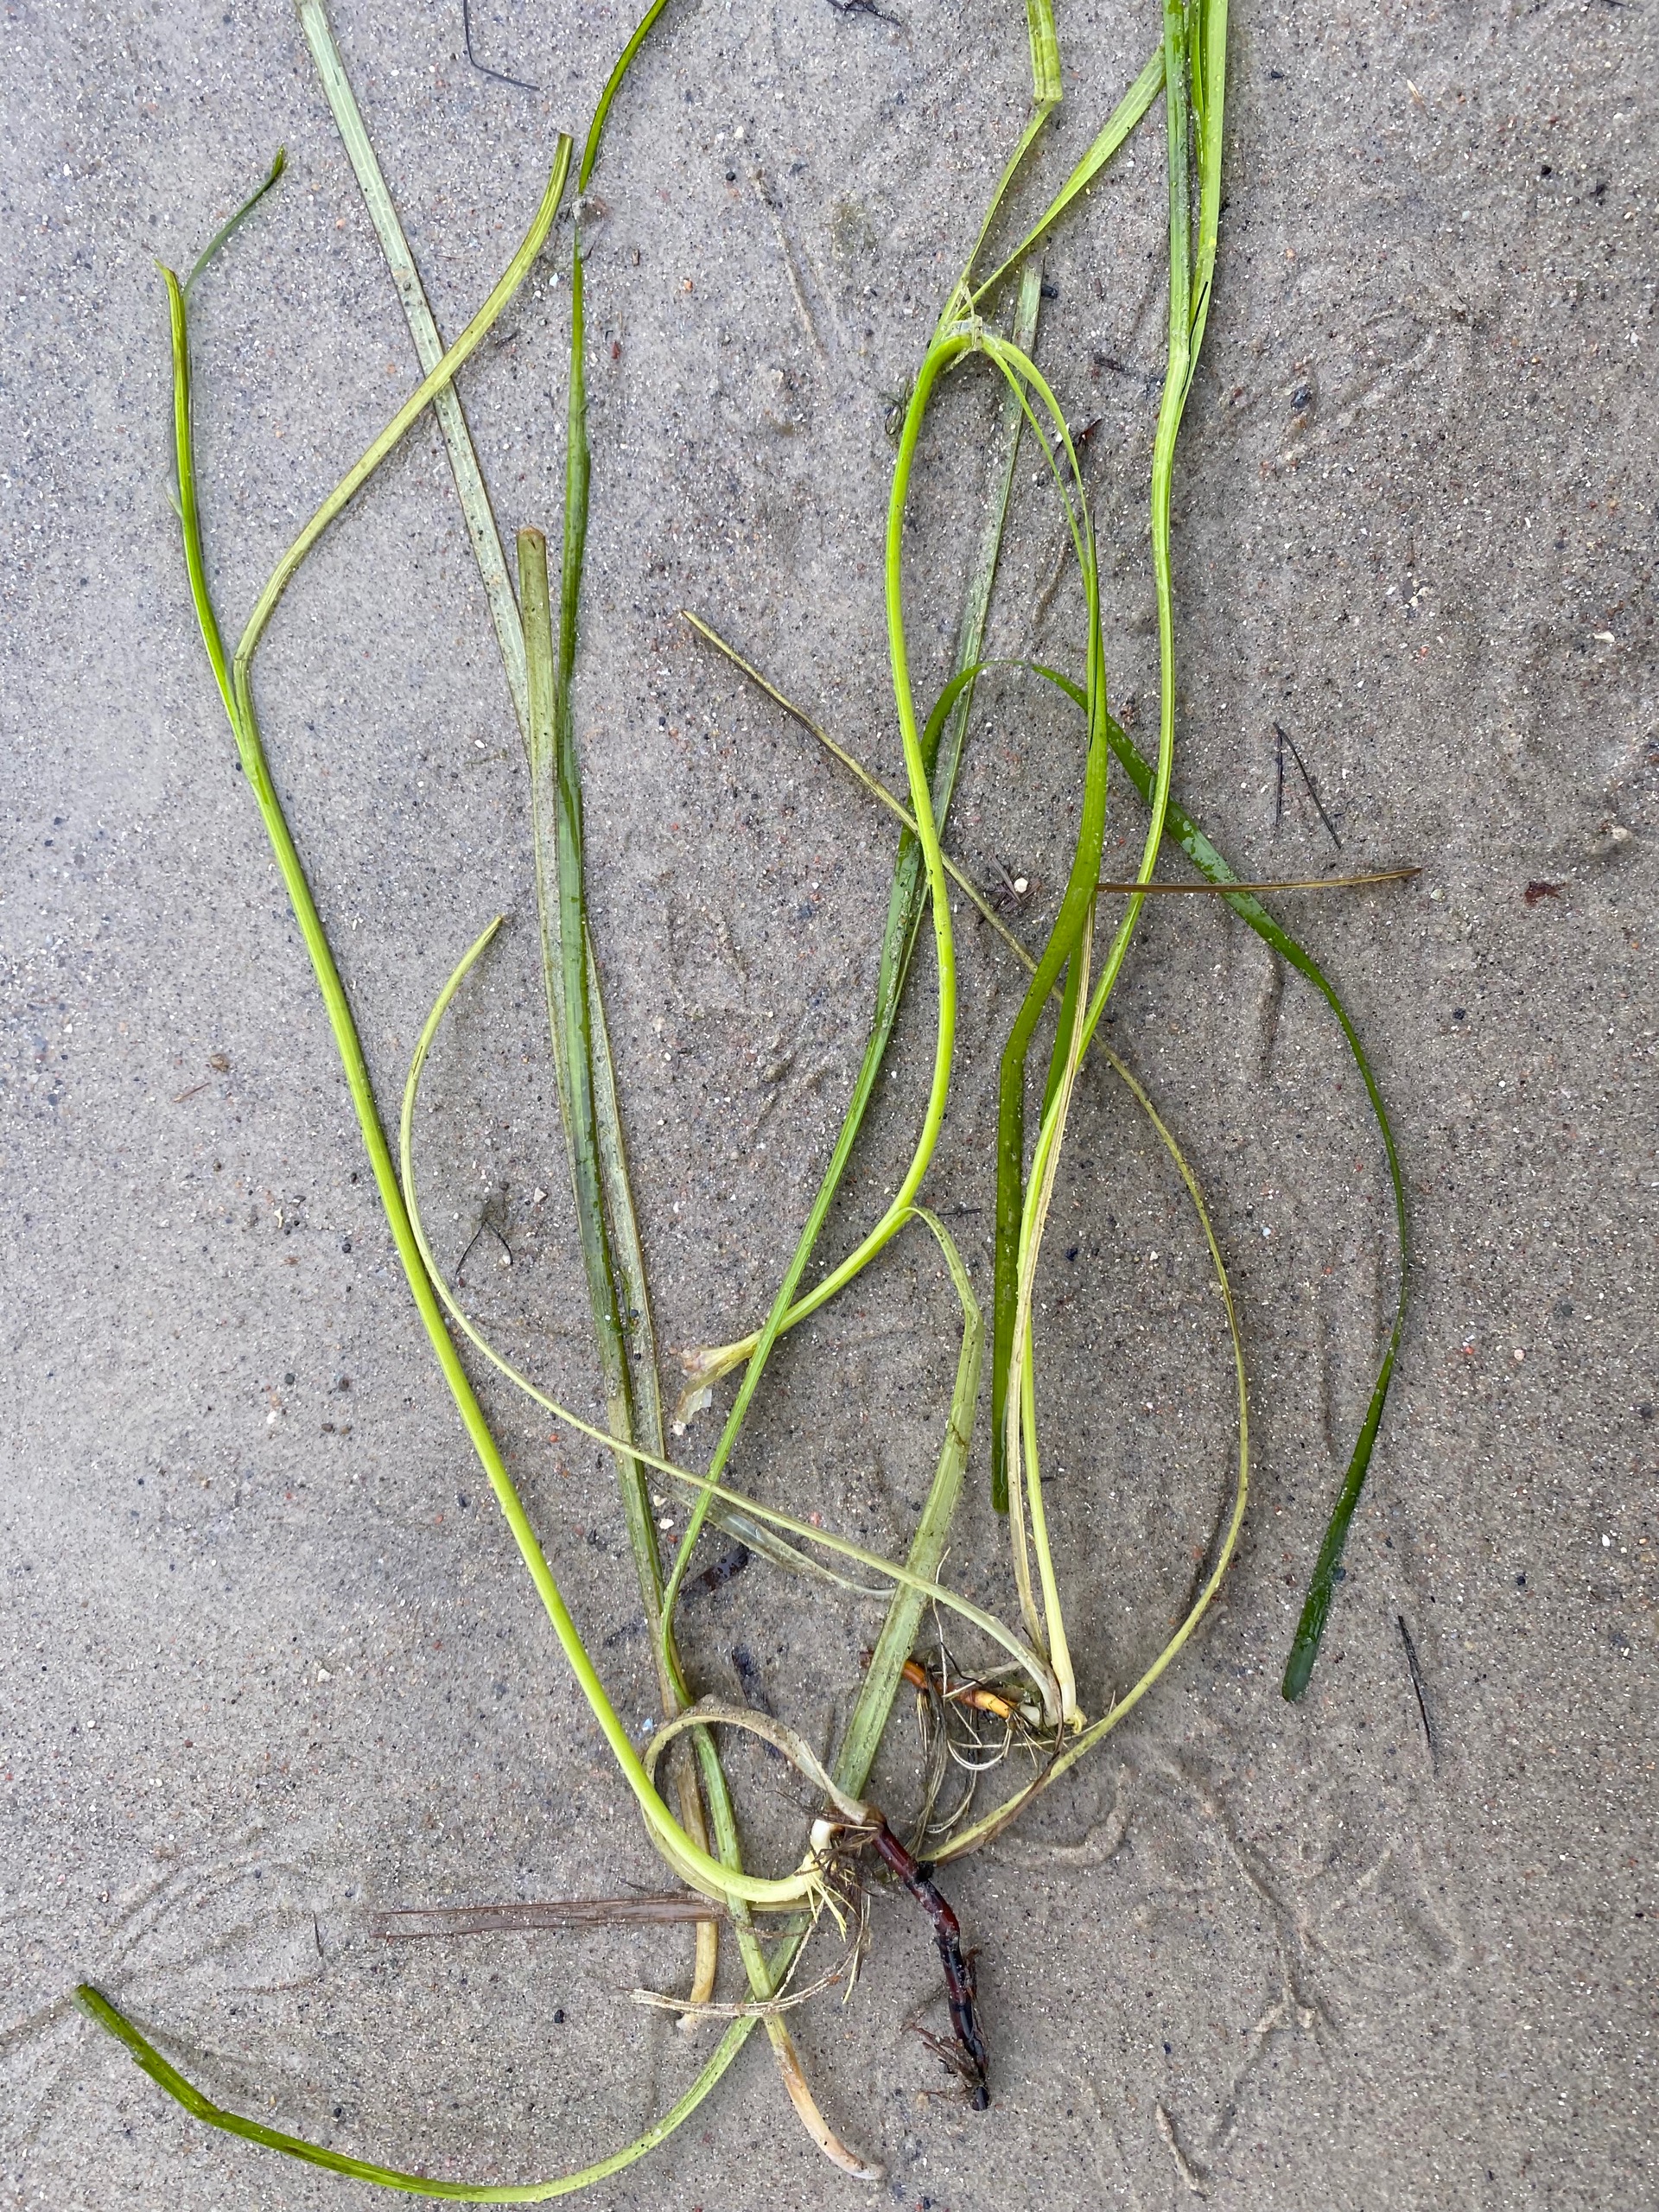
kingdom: Plantae
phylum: Tracheophyta
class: Liliopsida
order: Alismatales
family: Zosteraceae
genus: Zostera
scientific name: Zostera marina
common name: Almindelig bændeltang
